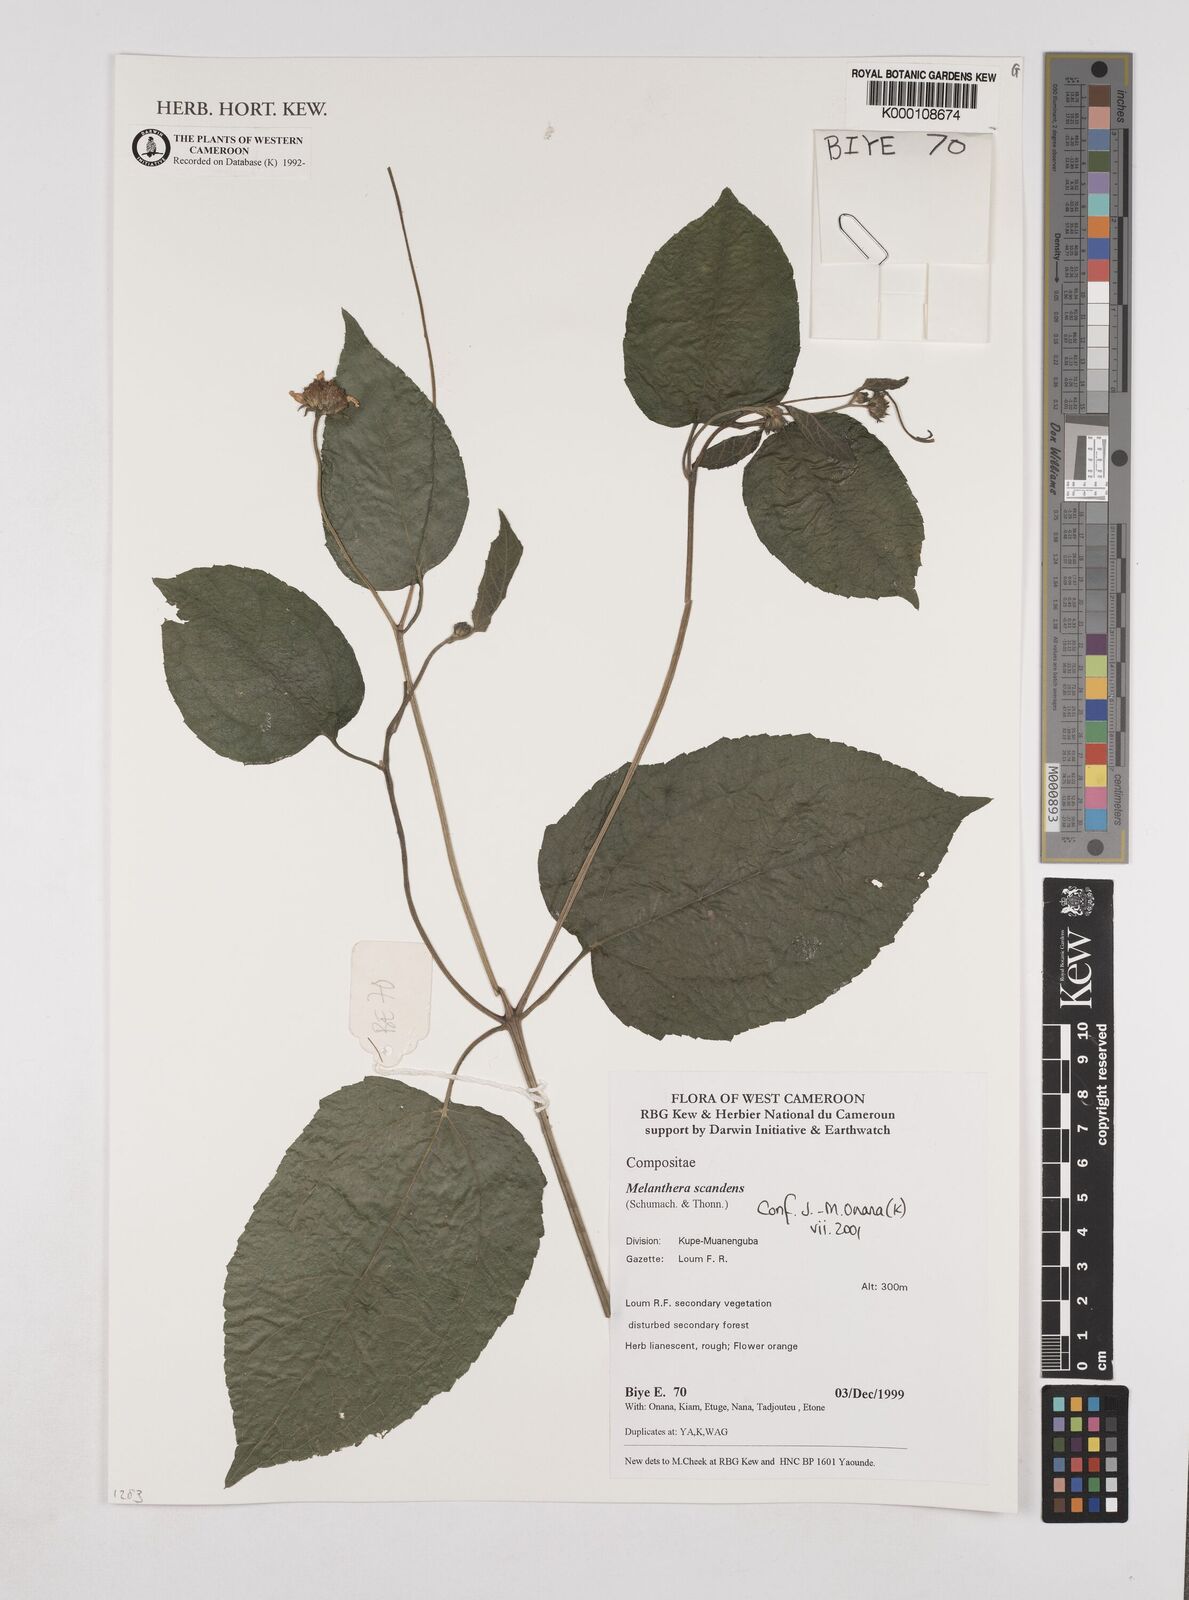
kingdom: Plantae
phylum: Tracheophyta
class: Magnoliopsida
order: Asterales
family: Asteraceae
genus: Melanthera
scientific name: Melanthera
